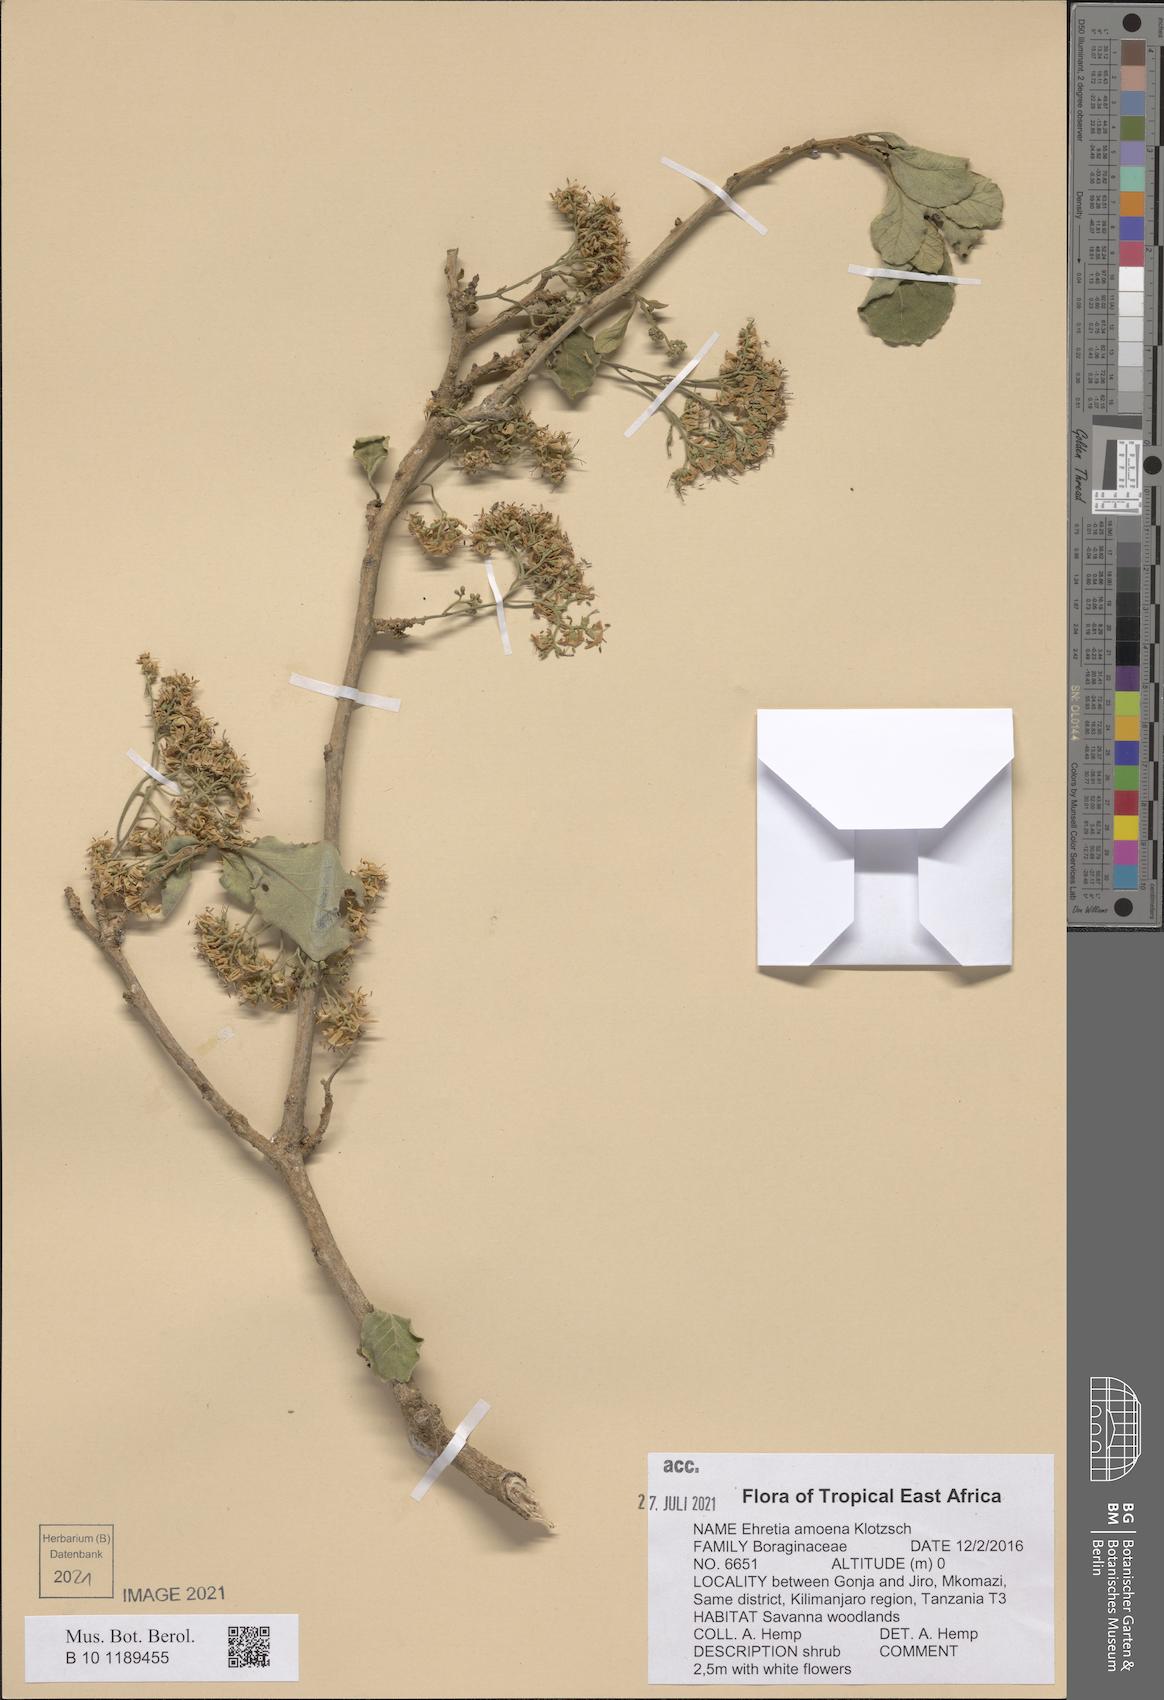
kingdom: Plantae
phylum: Tracheophyta
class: Magnoliopsida
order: Boraginales
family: Ehretiaceae
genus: Ehretia
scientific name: Ehretia amoena
